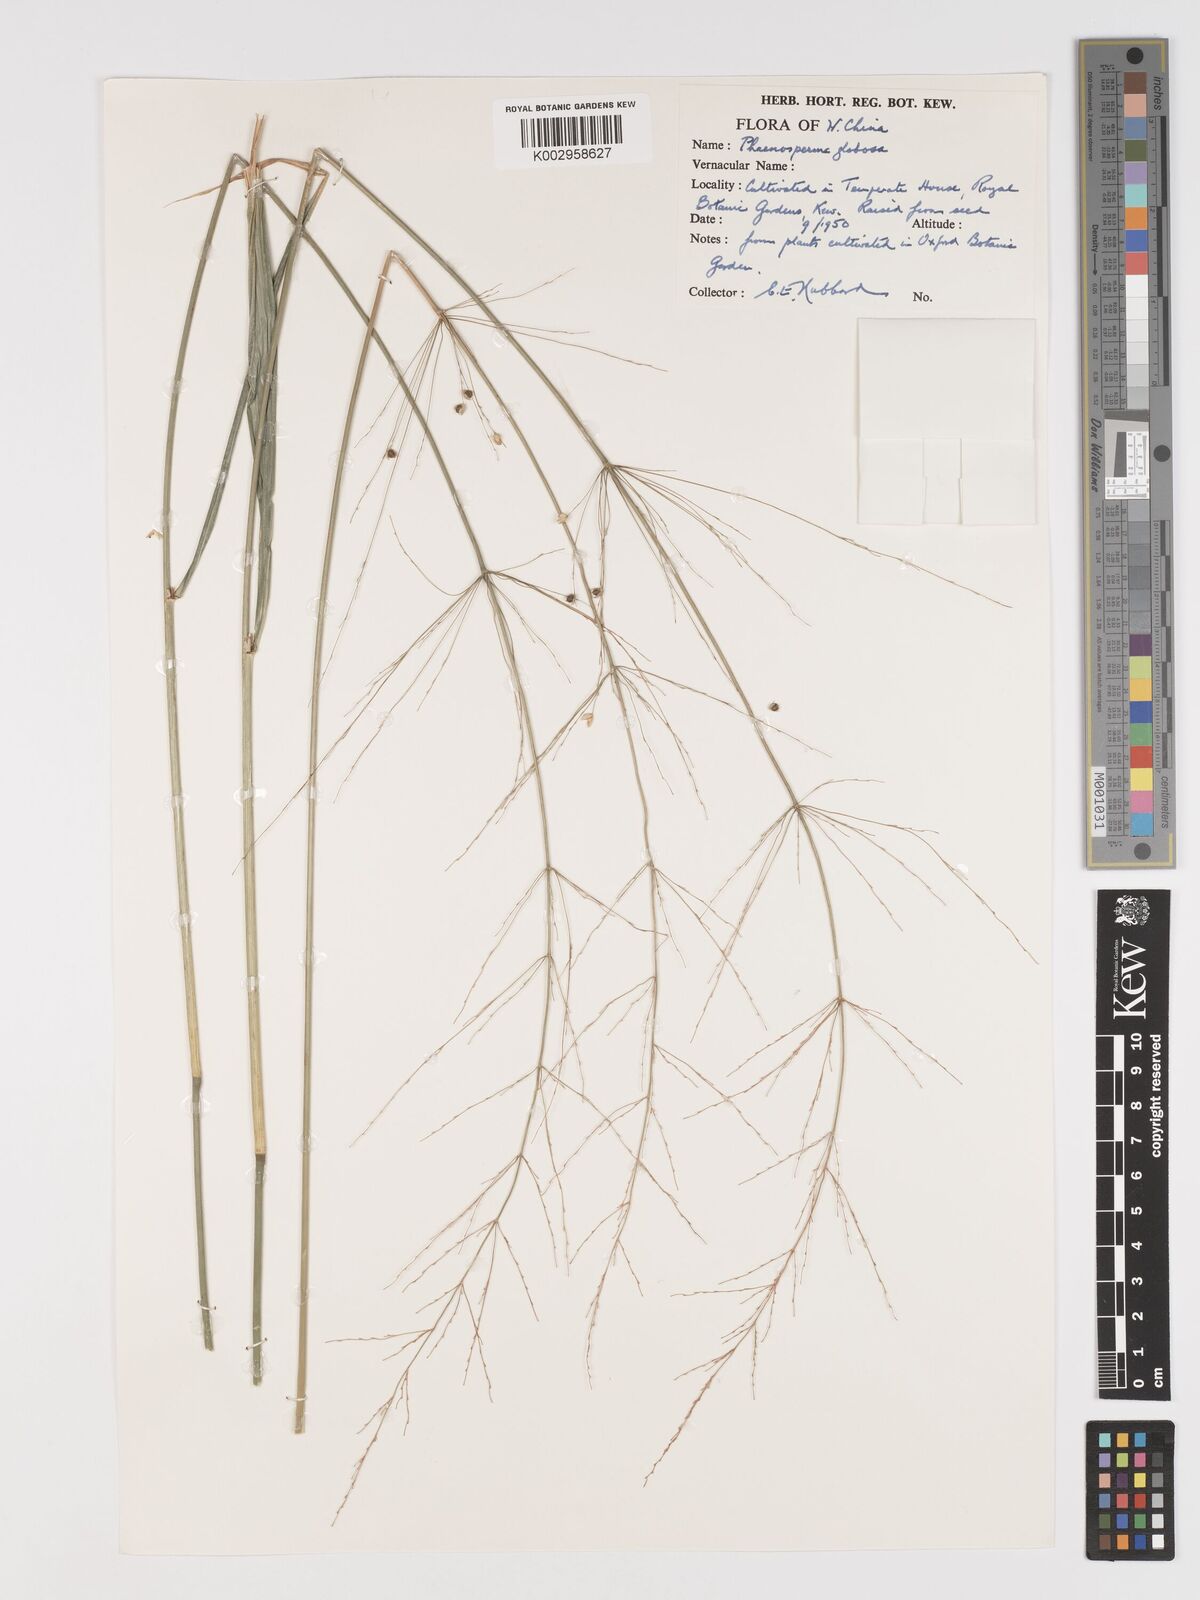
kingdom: Plantae
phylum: Tracheophyta
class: Liliopsida
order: Poales
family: Poaceae
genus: Phaenosperma
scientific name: Phaenosperma globosum
